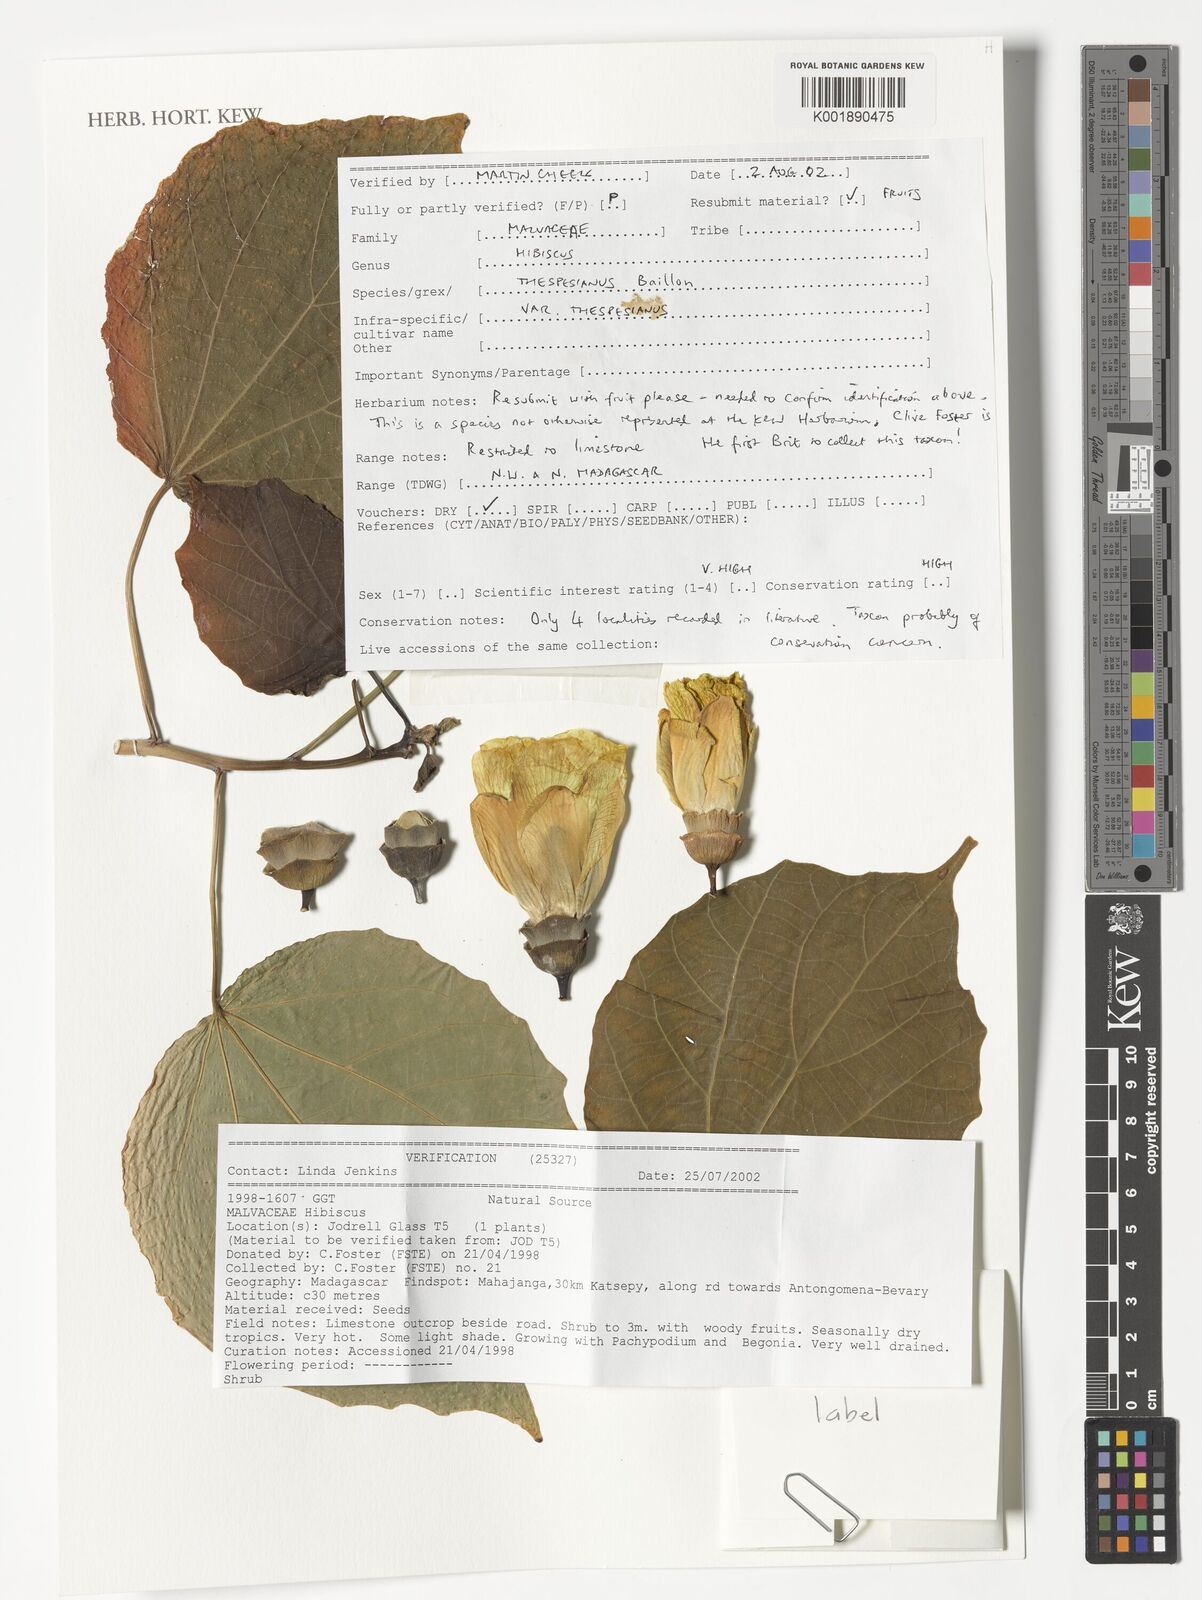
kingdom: Plantae
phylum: Tracheophyta
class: Magnoliopsida
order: Malvales
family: Malvaceae
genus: Hibiscus
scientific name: Hibiscus thespesianus
